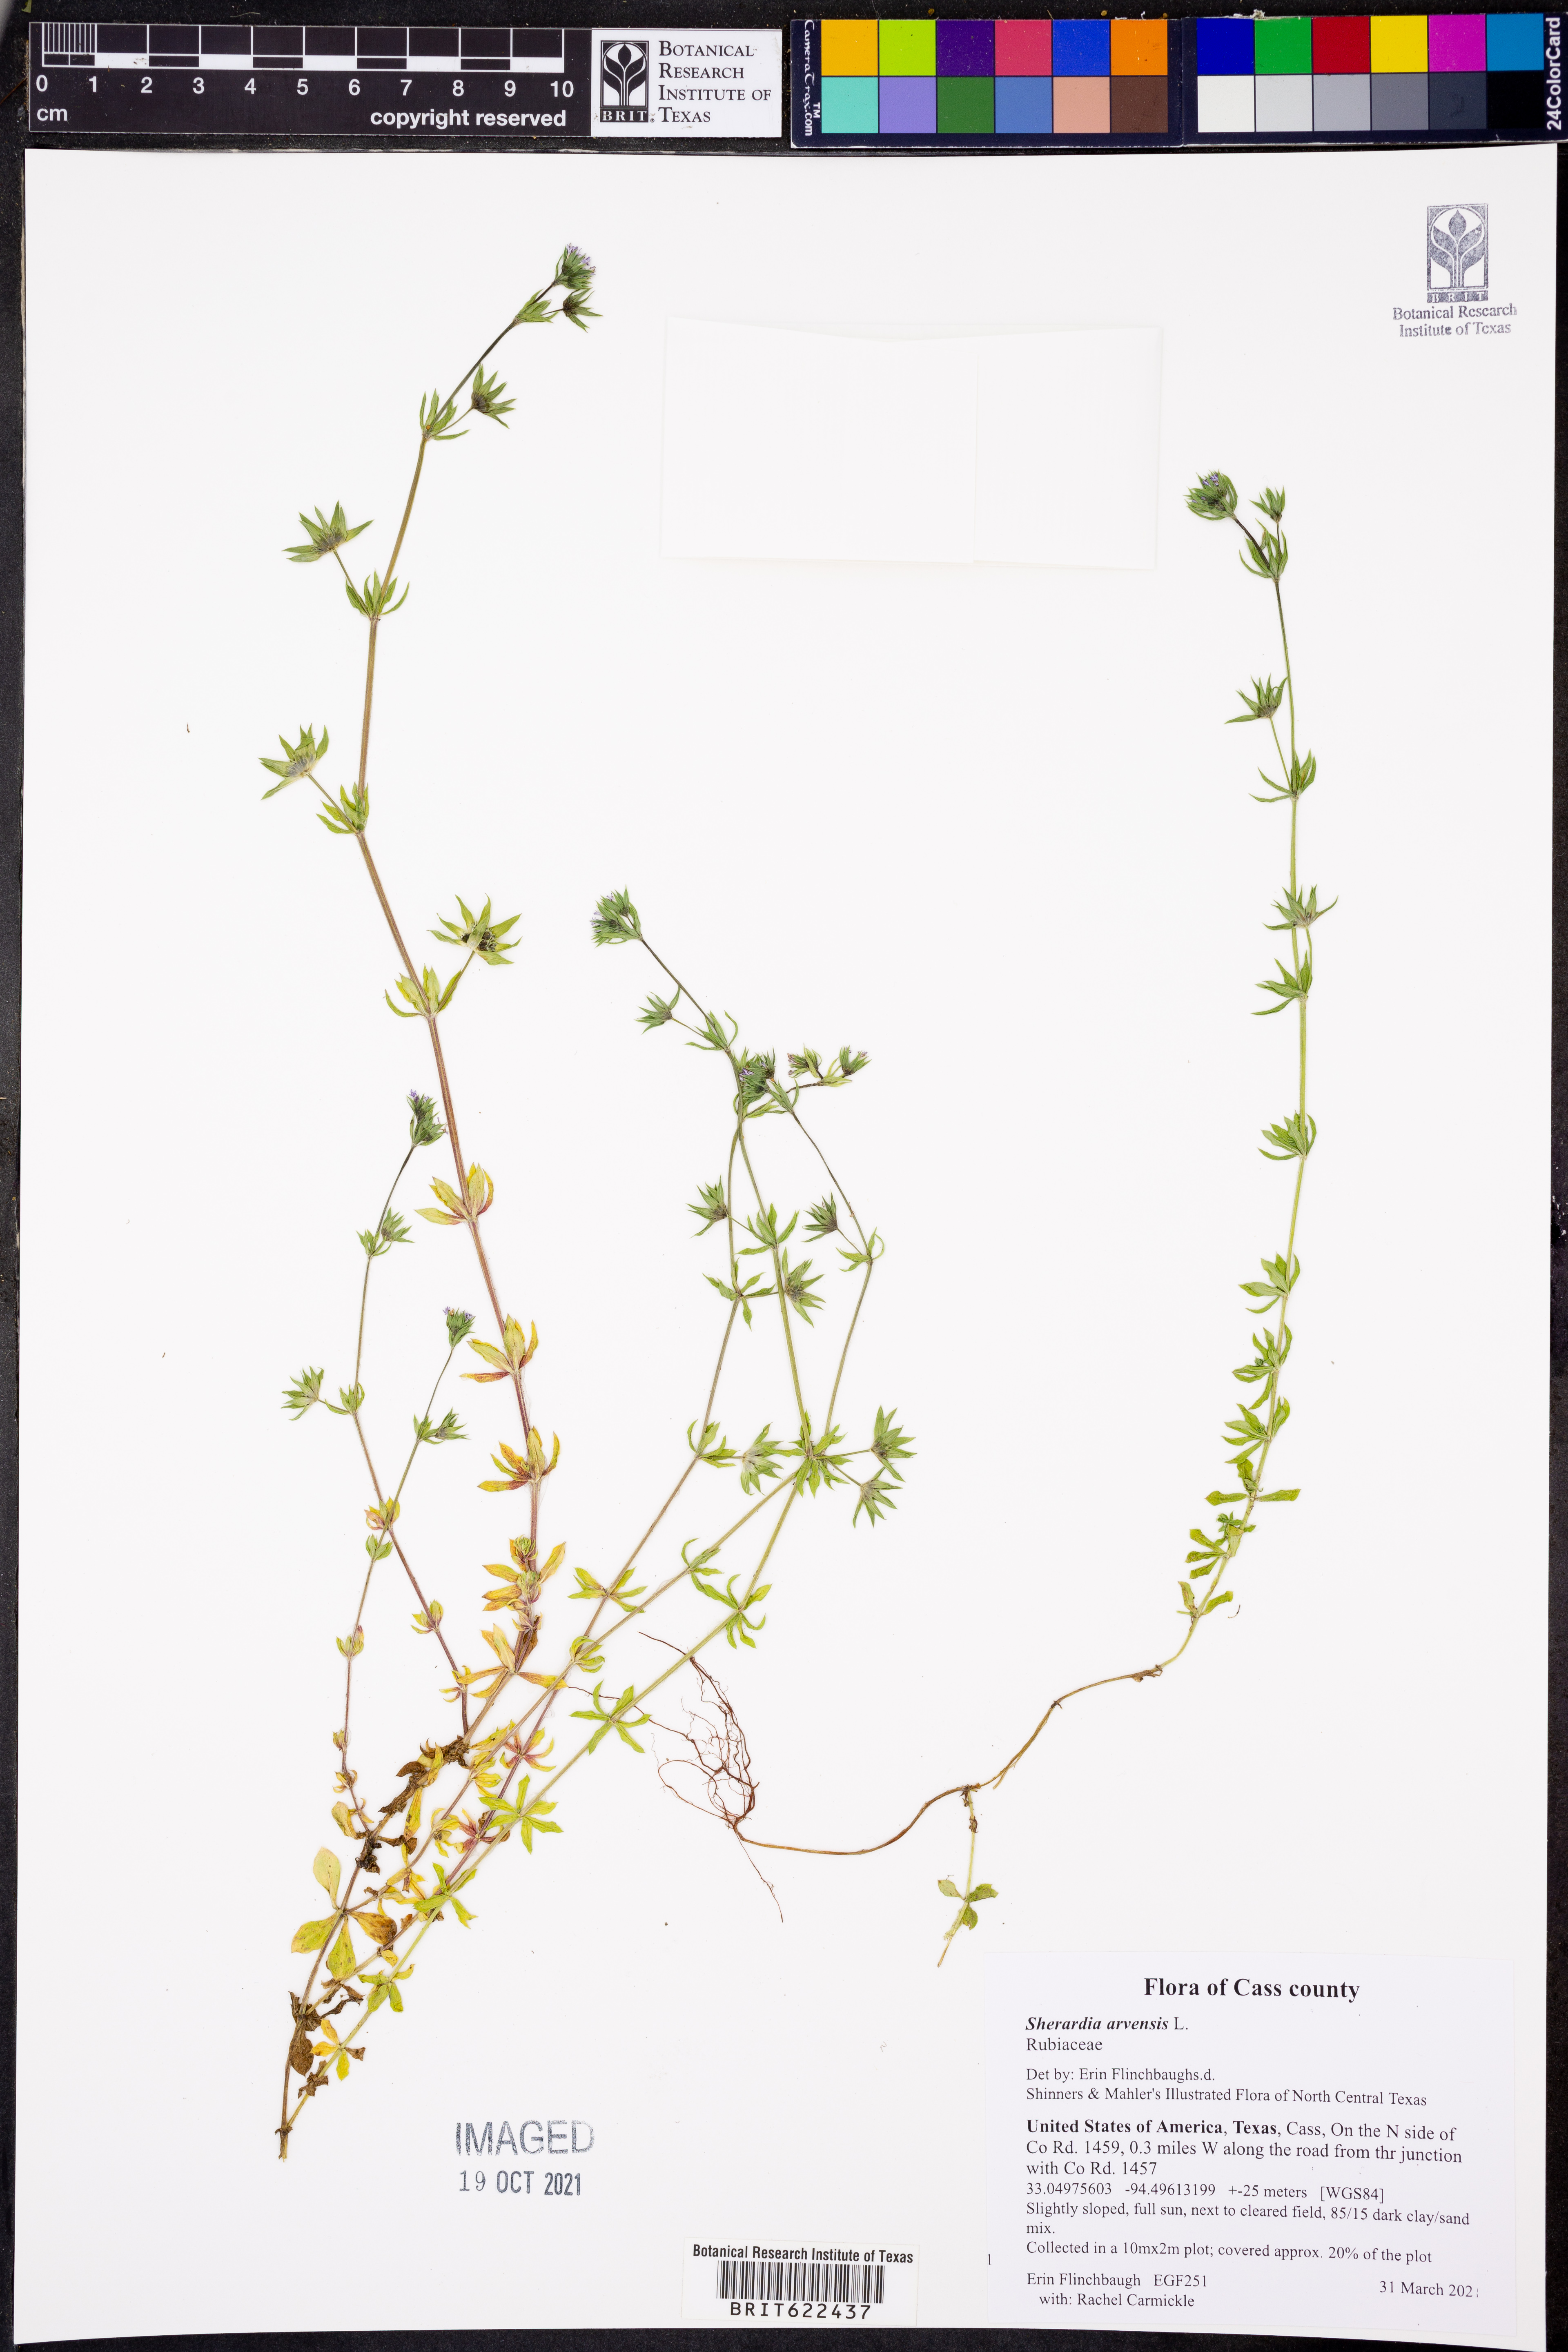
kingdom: Plantae
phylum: Tracheophyta
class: Magnoliopsida
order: Gentianales
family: Rubiaceae
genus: Sherardia
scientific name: Sherardia arvensis
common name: Field madder
